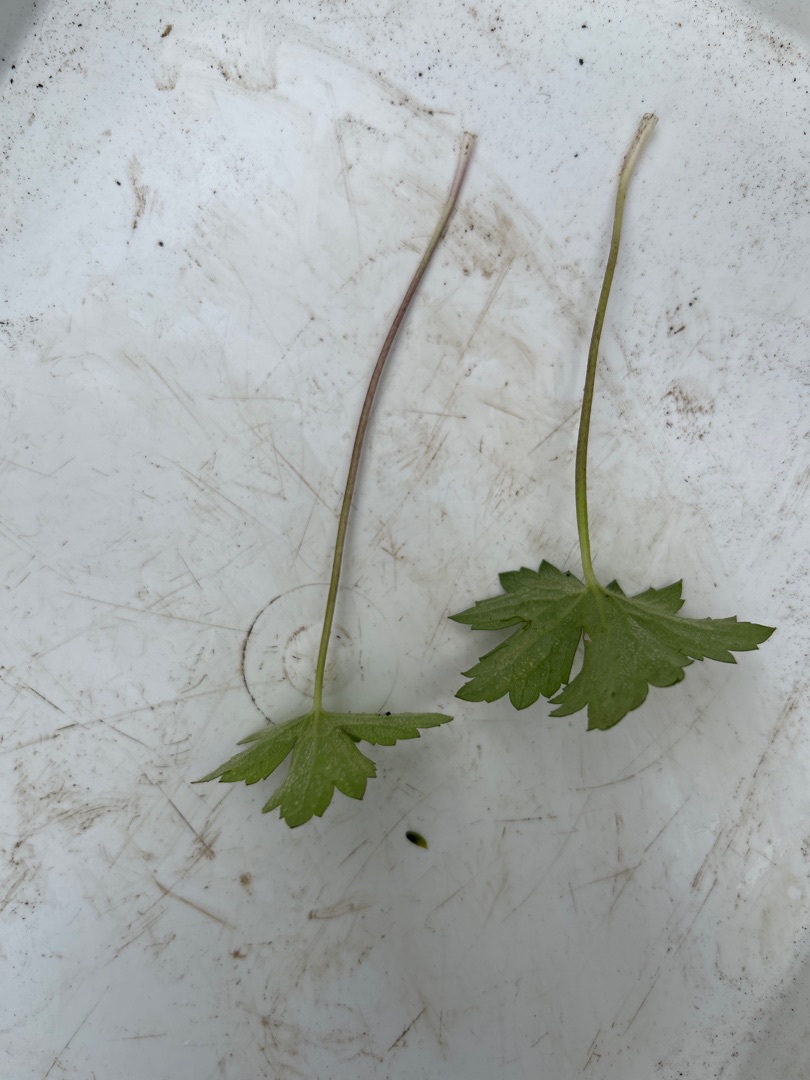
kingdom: Plantae
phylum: Tracheophyta
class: Magnoliopsida
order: Ranunculales
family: Ranunculaceae
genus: Ranunculus
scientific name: Ranunculus acris
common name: Bidende ranunkel
